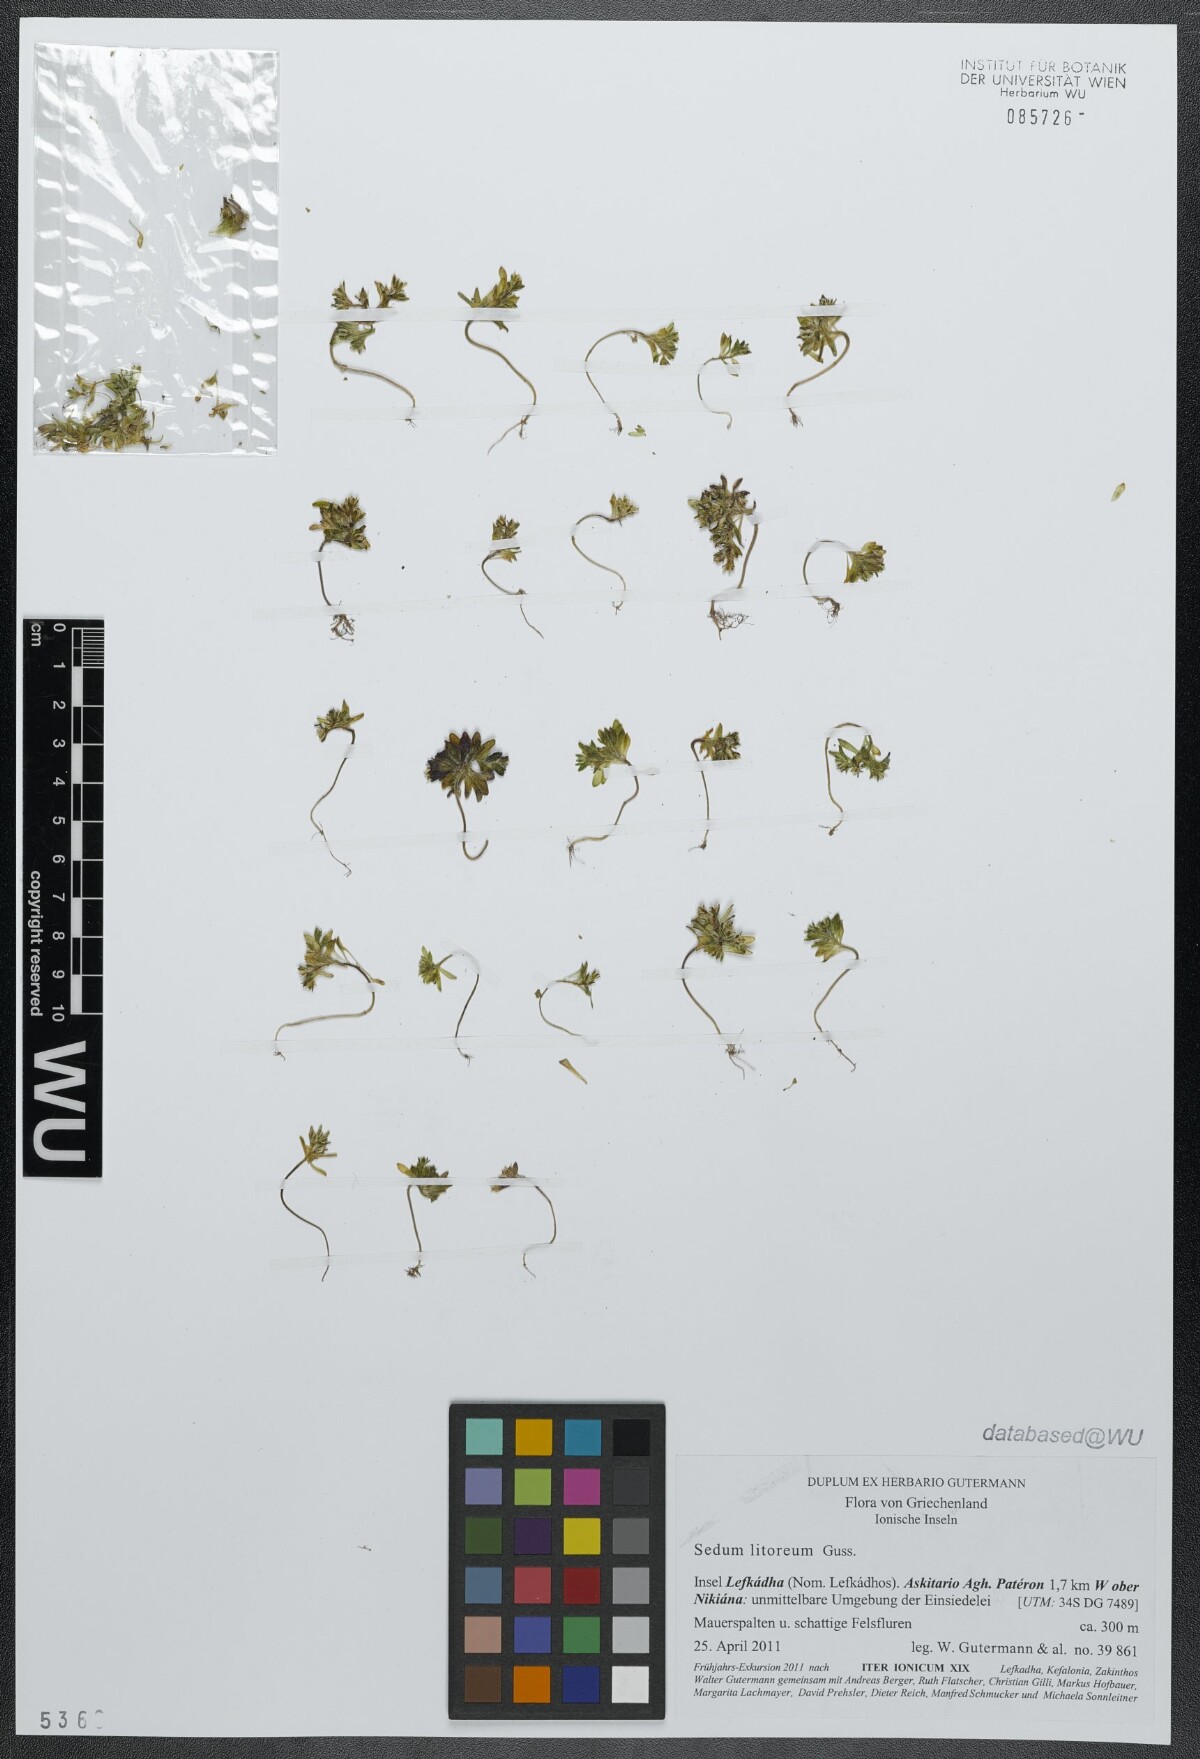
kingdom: Plantae
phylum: Tracheophyta
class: Magnoliopsida
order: Saxifragales
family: Crassulaceae
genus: Sedum
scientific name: Sedum litoreum
